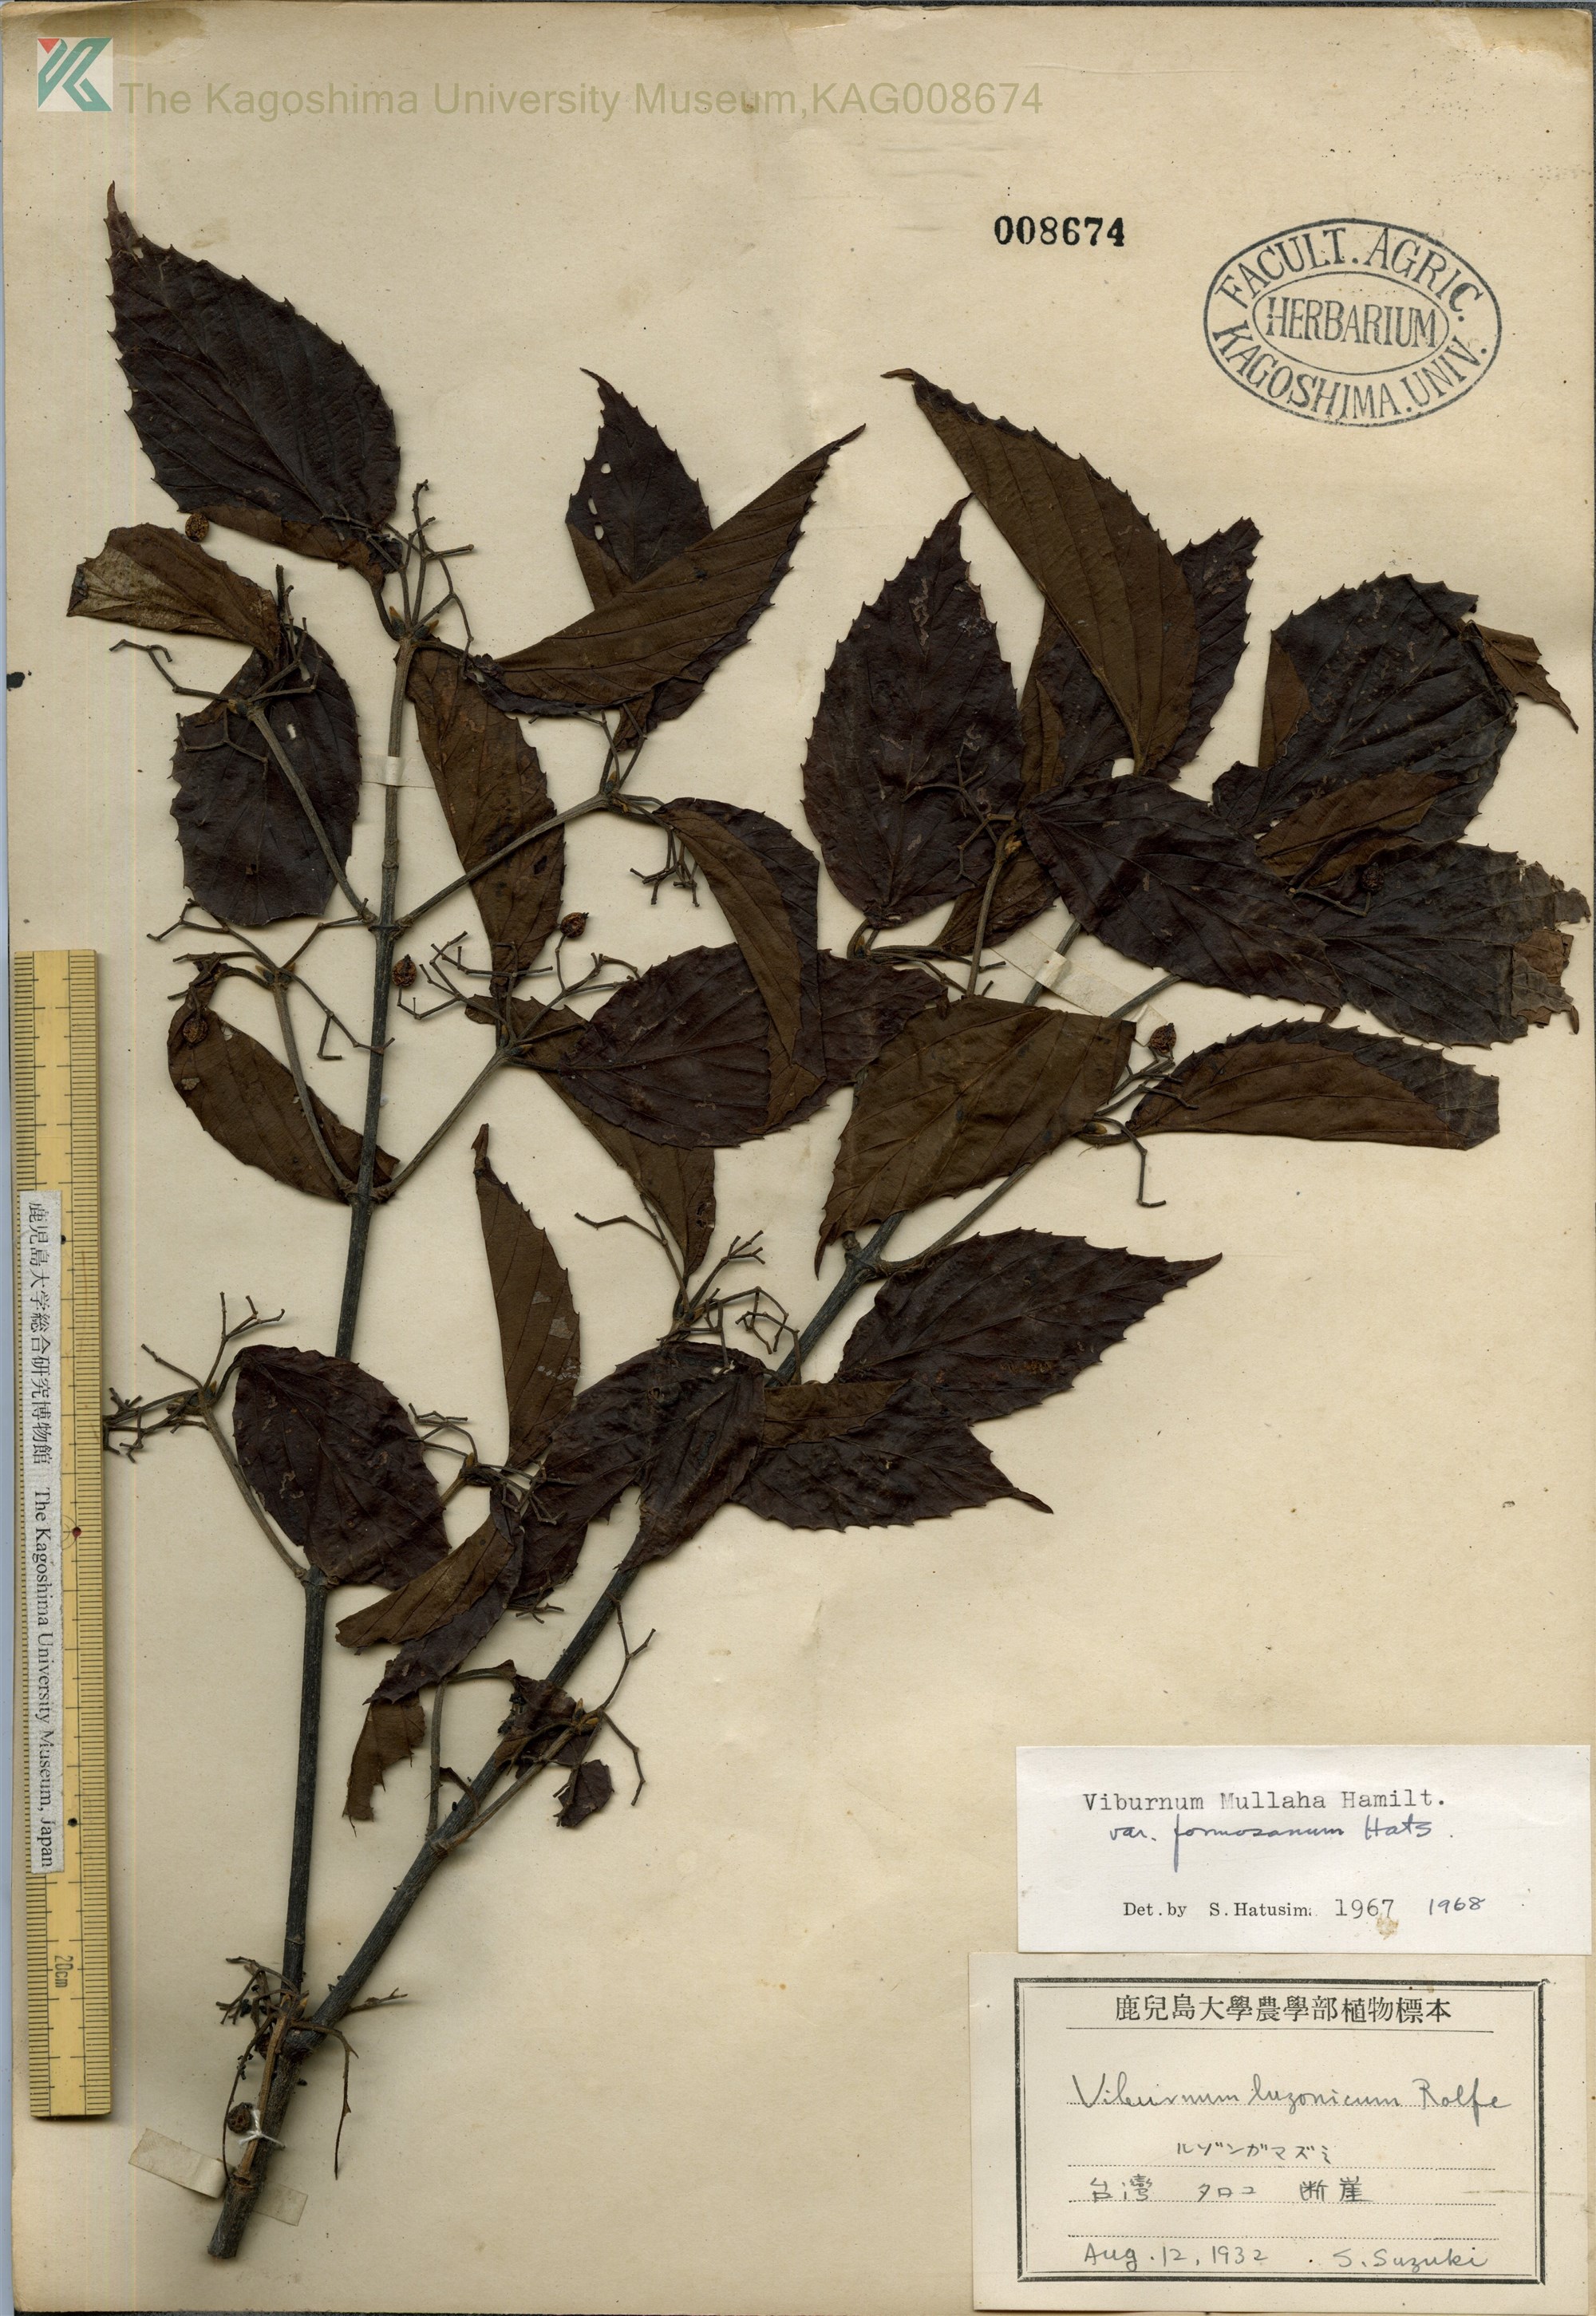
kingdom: Plantae
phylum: Tracheophyta
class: Magnoliopsida
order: Dipsacales
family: Viburnaceae
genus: Viburnum
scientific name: Viburnum mullaha
